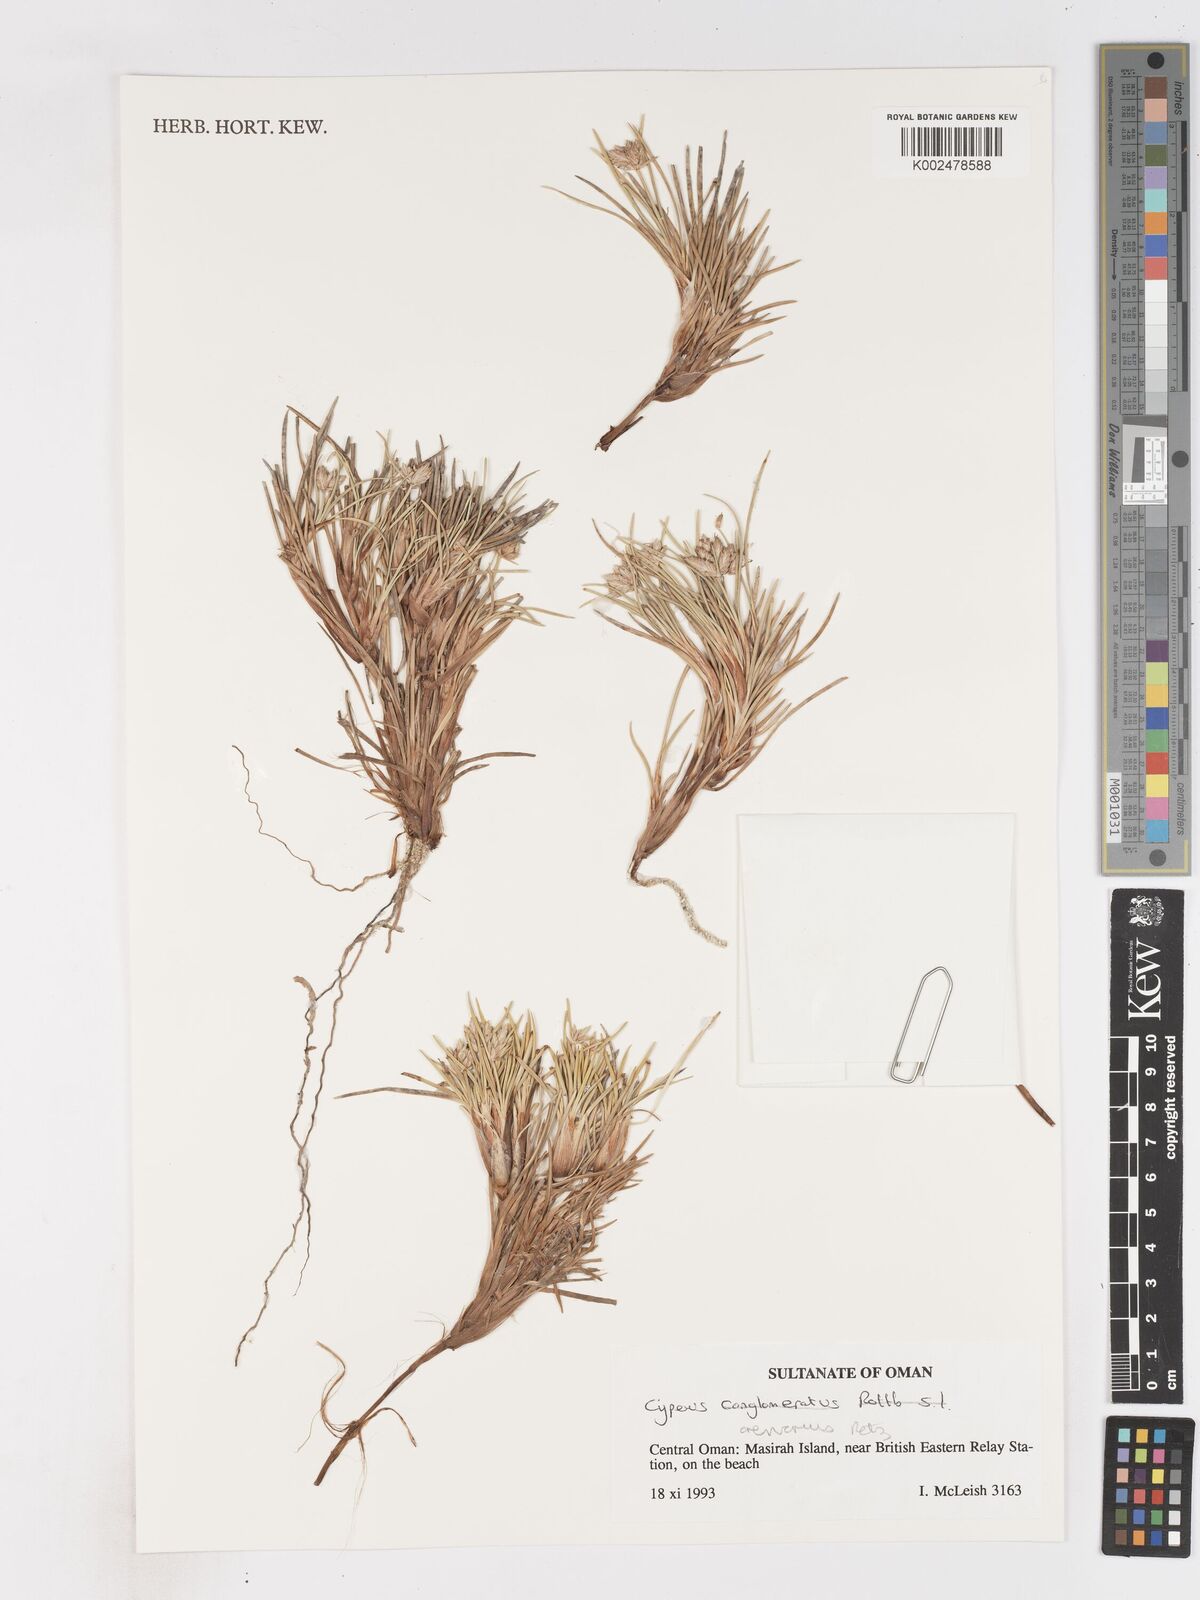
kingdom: Plantae
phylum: Tracheophyta
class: Liliopsida
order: Poales
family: Cyperaceae
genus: Cyperus
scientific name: Cyperus arenarius
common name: Dwarf sedge
